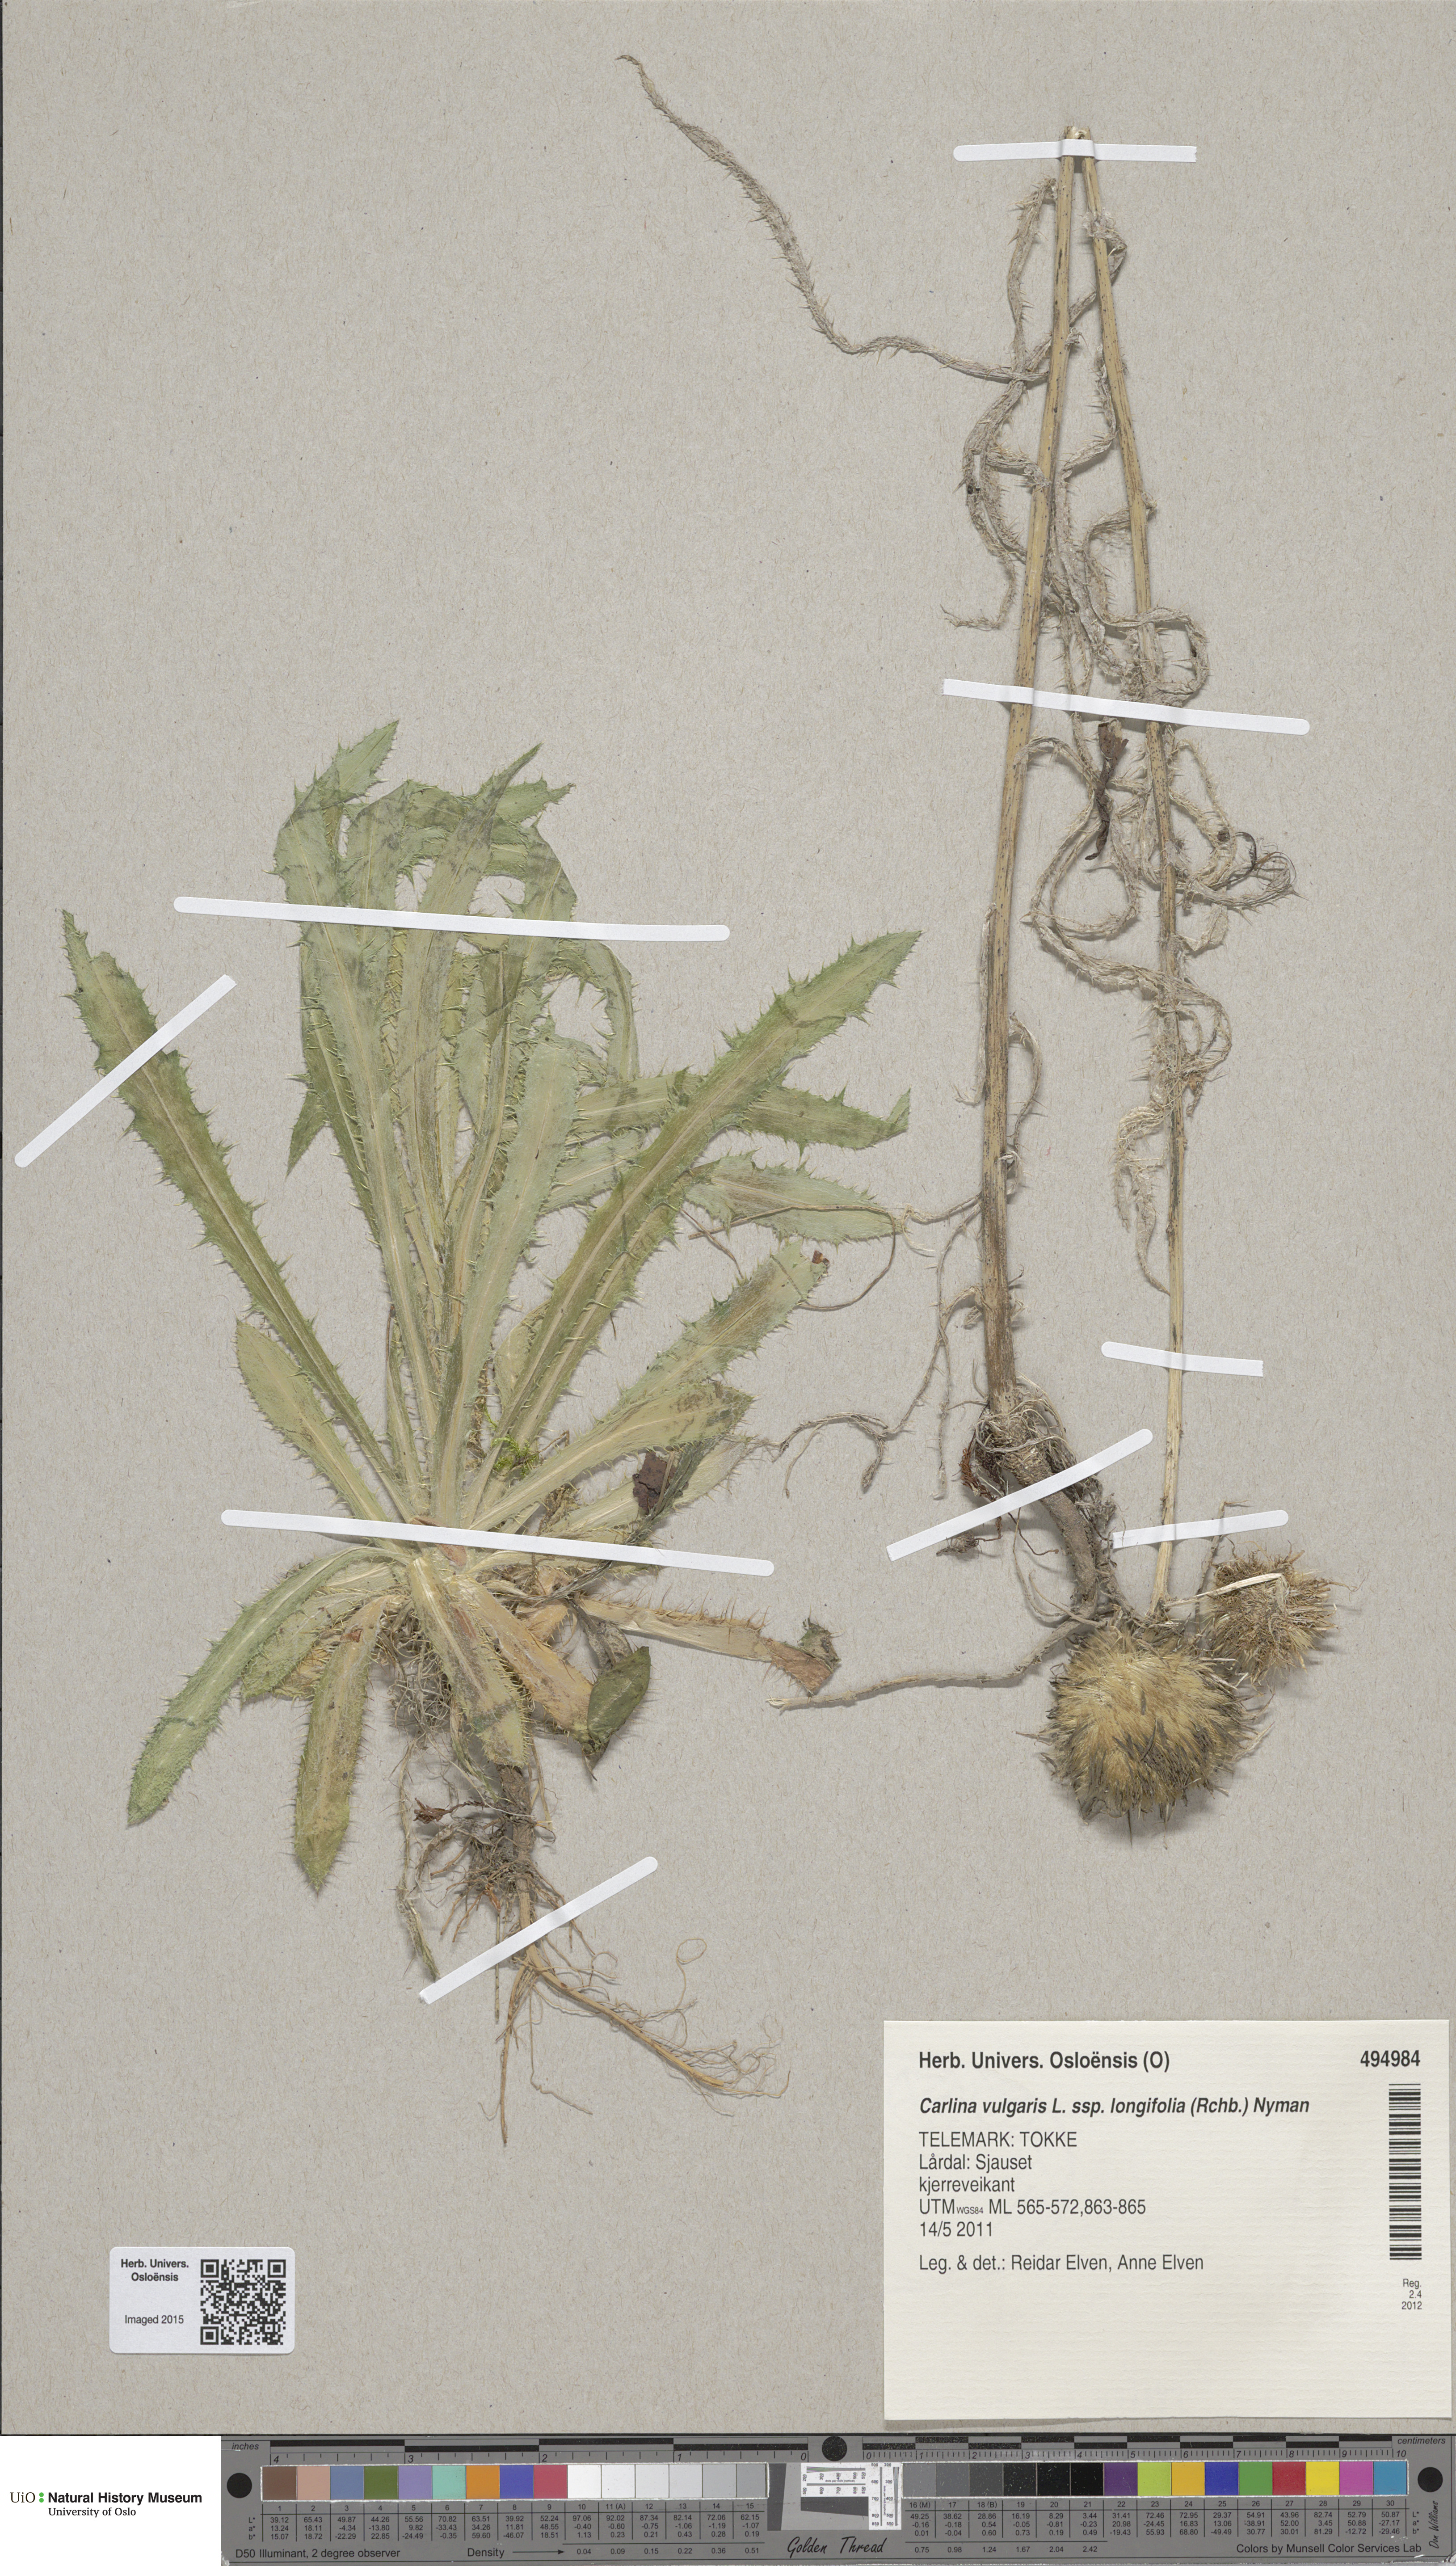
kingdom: Plantae
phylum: Tracheophyta
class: Magnoliopsida
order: Asterales
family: Asteraceae
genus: Carlina
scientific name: Carlina biebersteinii
